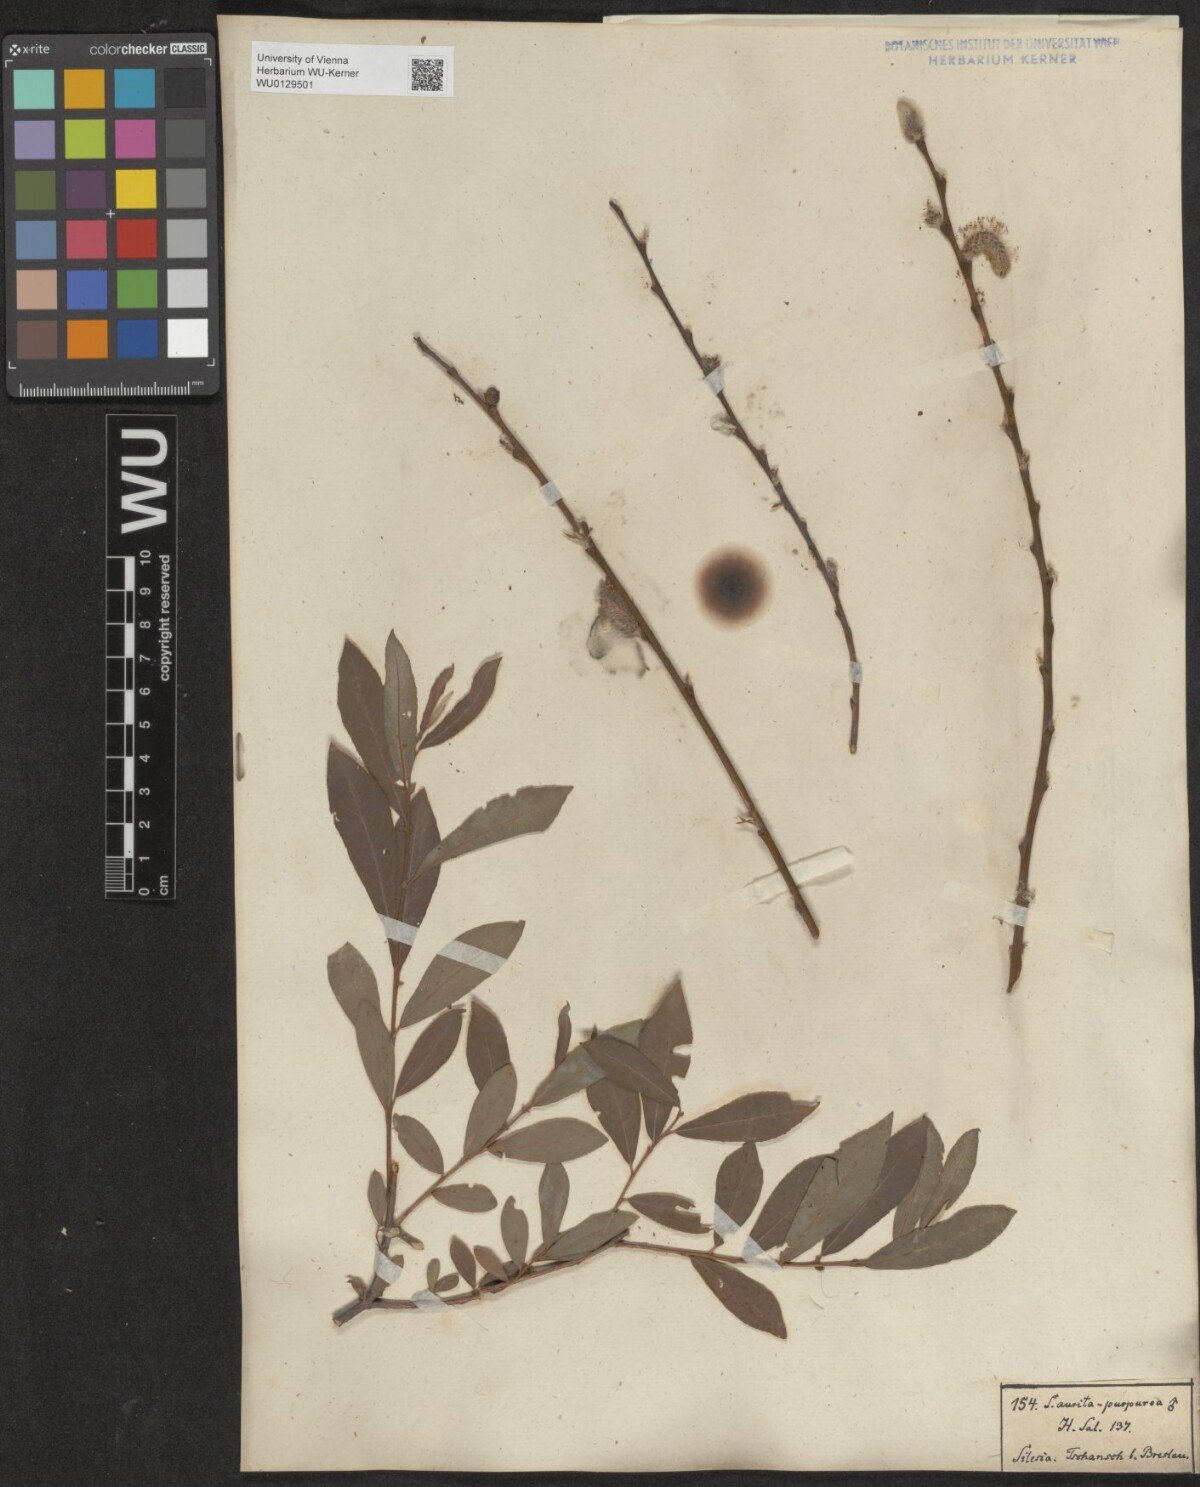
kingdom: Plantae
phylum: Tracheophyta
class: Magnoliopsida
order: Malpighiales
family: Salicaceae
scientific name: Salicaceae
